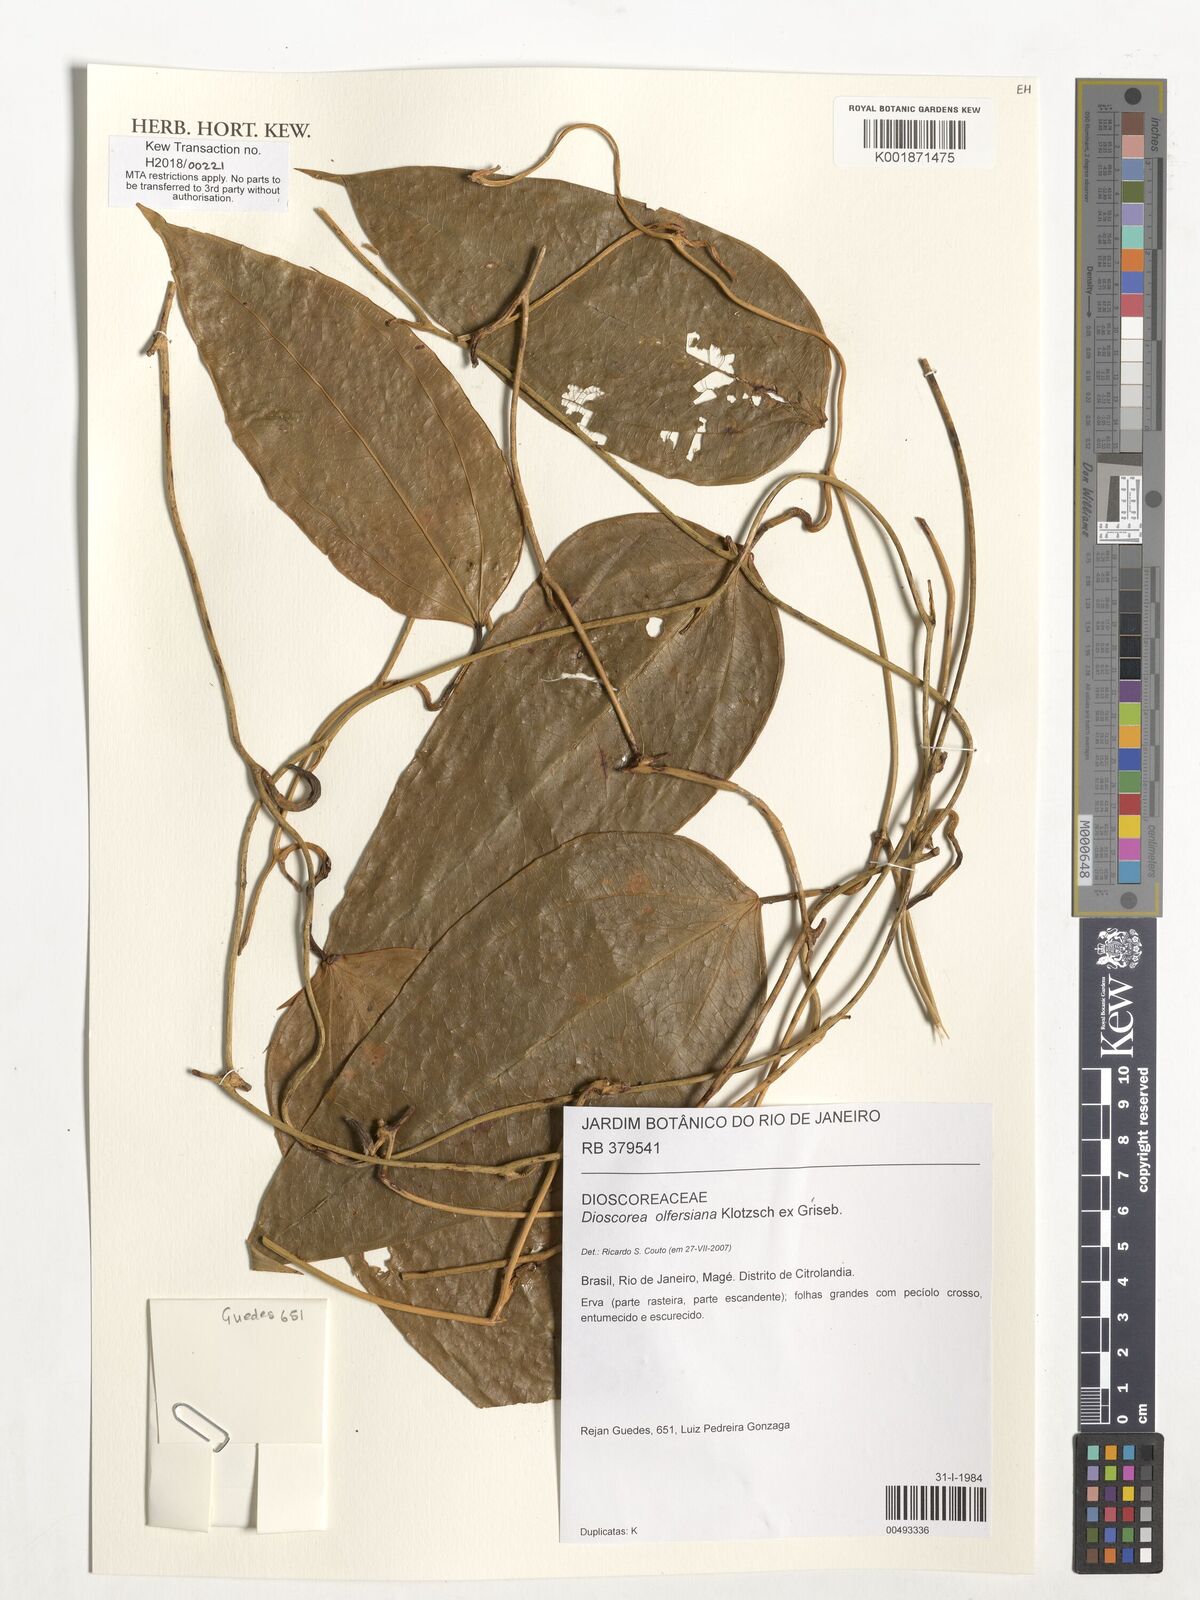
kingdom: Plantae
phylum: Tracheophyta
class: Liliopsida
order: Dioscoreales
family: Dioscoreaceae
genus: Dioscorea
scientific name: Dioscorea olfersiana
